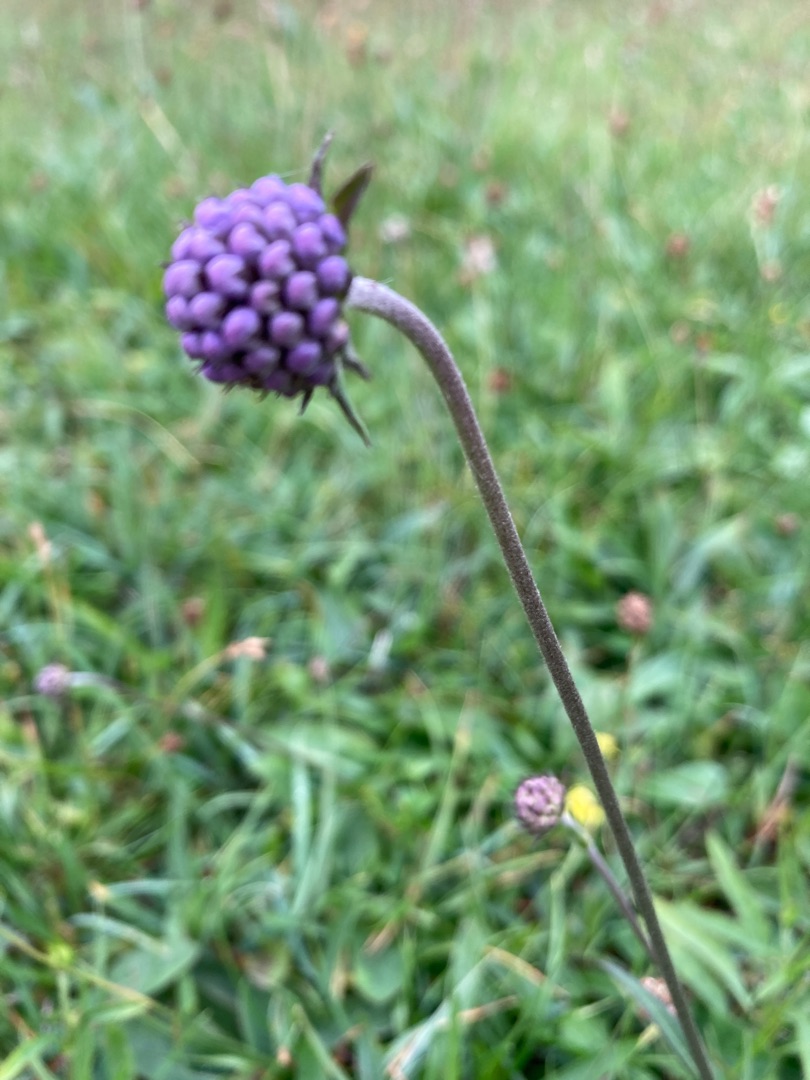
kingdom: Plantae
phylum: Tracheophyta
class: Magnoliopsida
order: Dipsacales
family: Caprifoliaceae
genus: Succisa
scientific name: Succisa pratensis
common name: Djævelsbid
